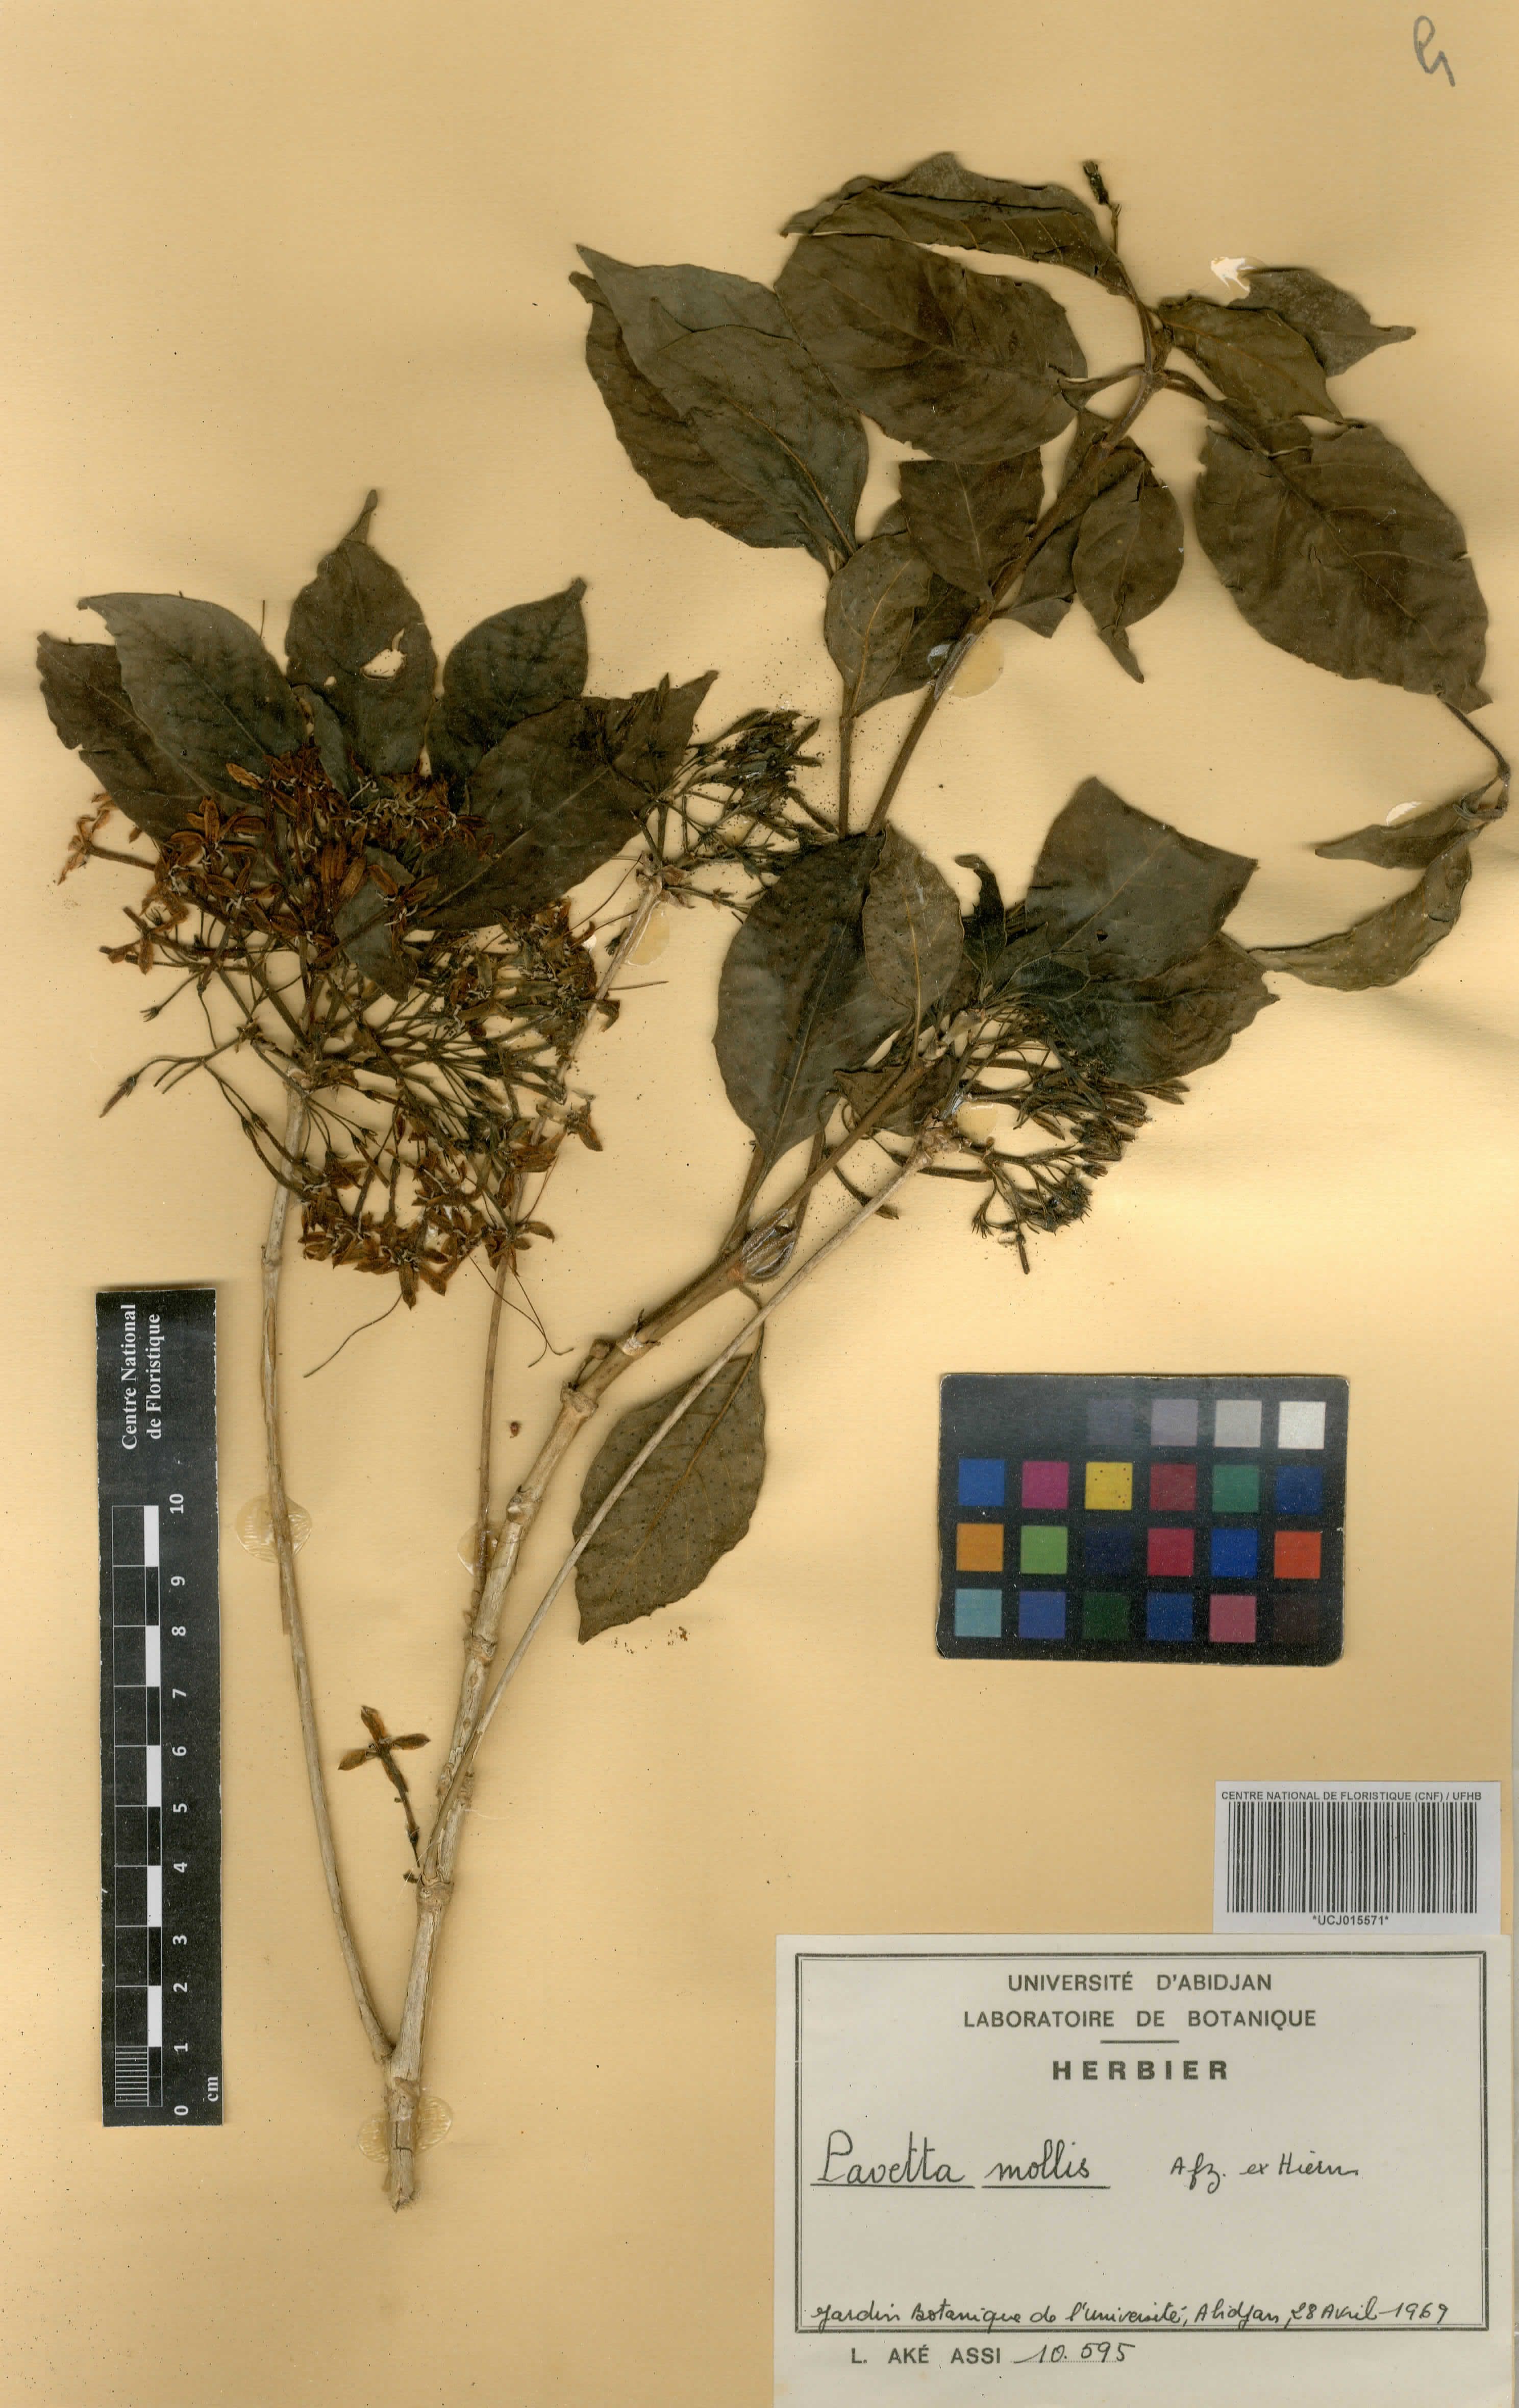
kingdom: Plantae
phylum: Tracheophyta
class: Magnoliopsida
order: Gentianales
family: Rubiaceae
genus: Pavetta
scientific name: Pavetta mollis
